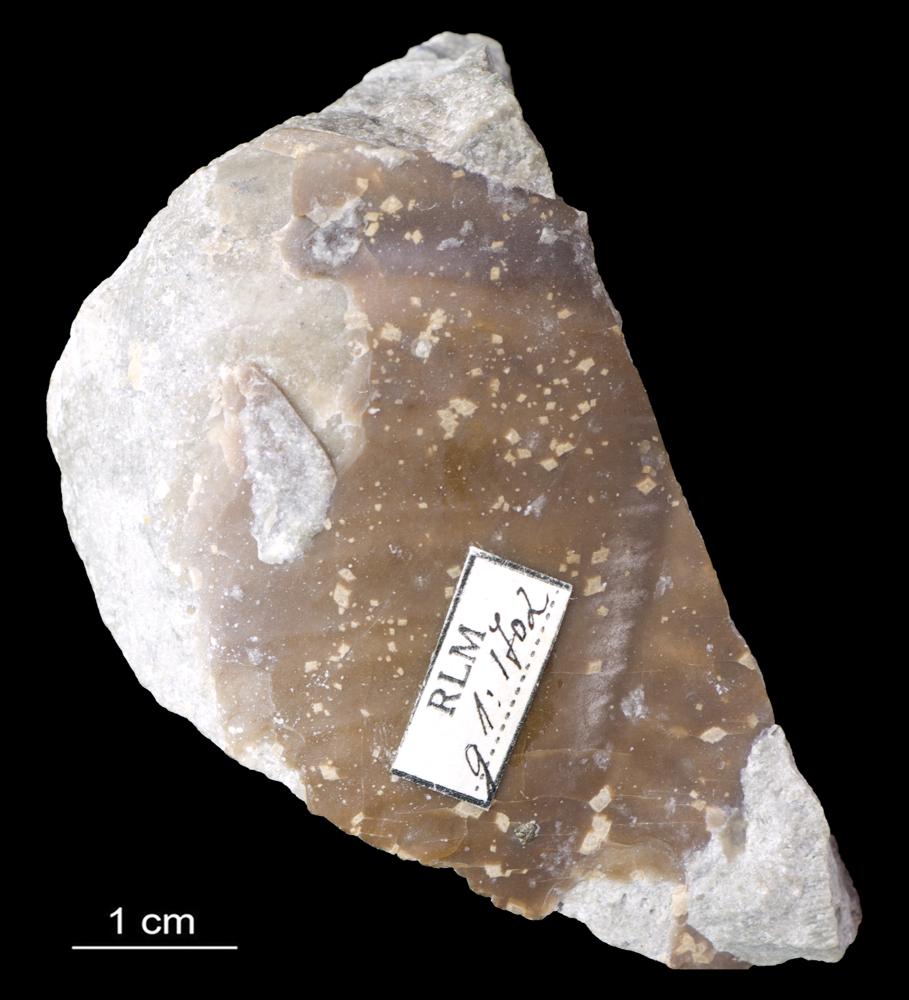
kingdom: Animalia
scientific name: Animalia
